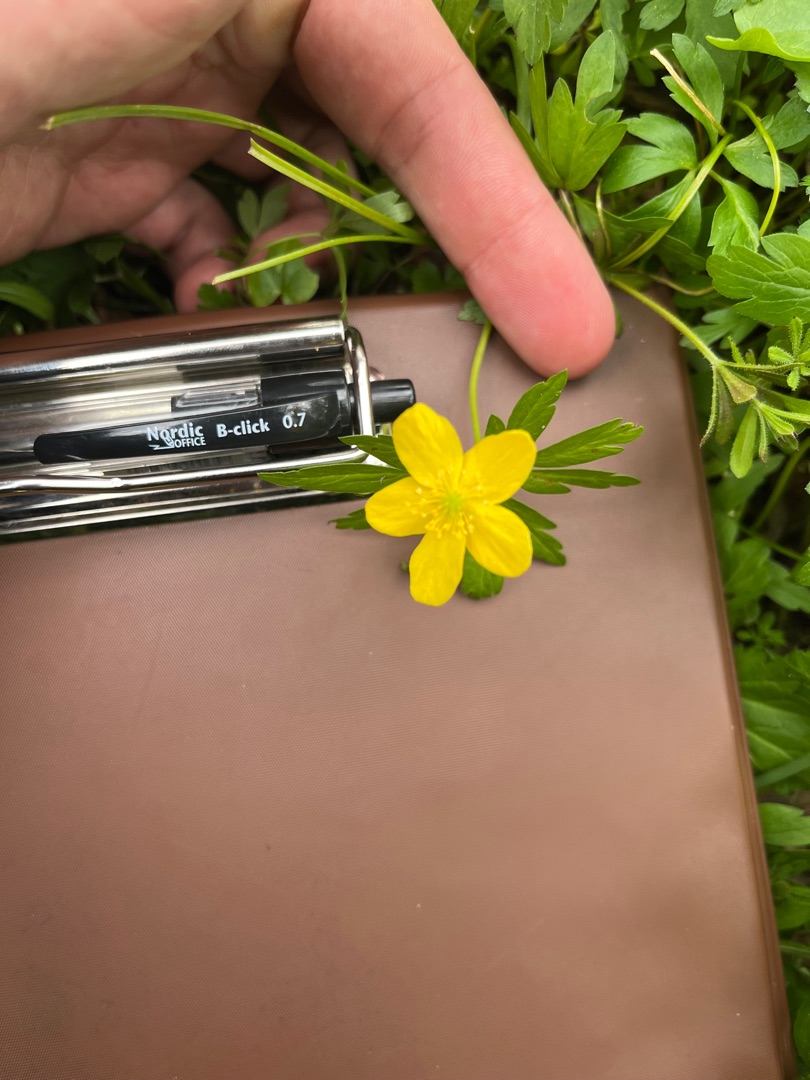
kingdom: Plantae
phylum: Tracheophyta
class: Magnoliopsida
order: Ranunculales
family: Ranunculaceae
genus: Anemone
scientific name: Anemone ranunculoides
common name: Gul anemone
